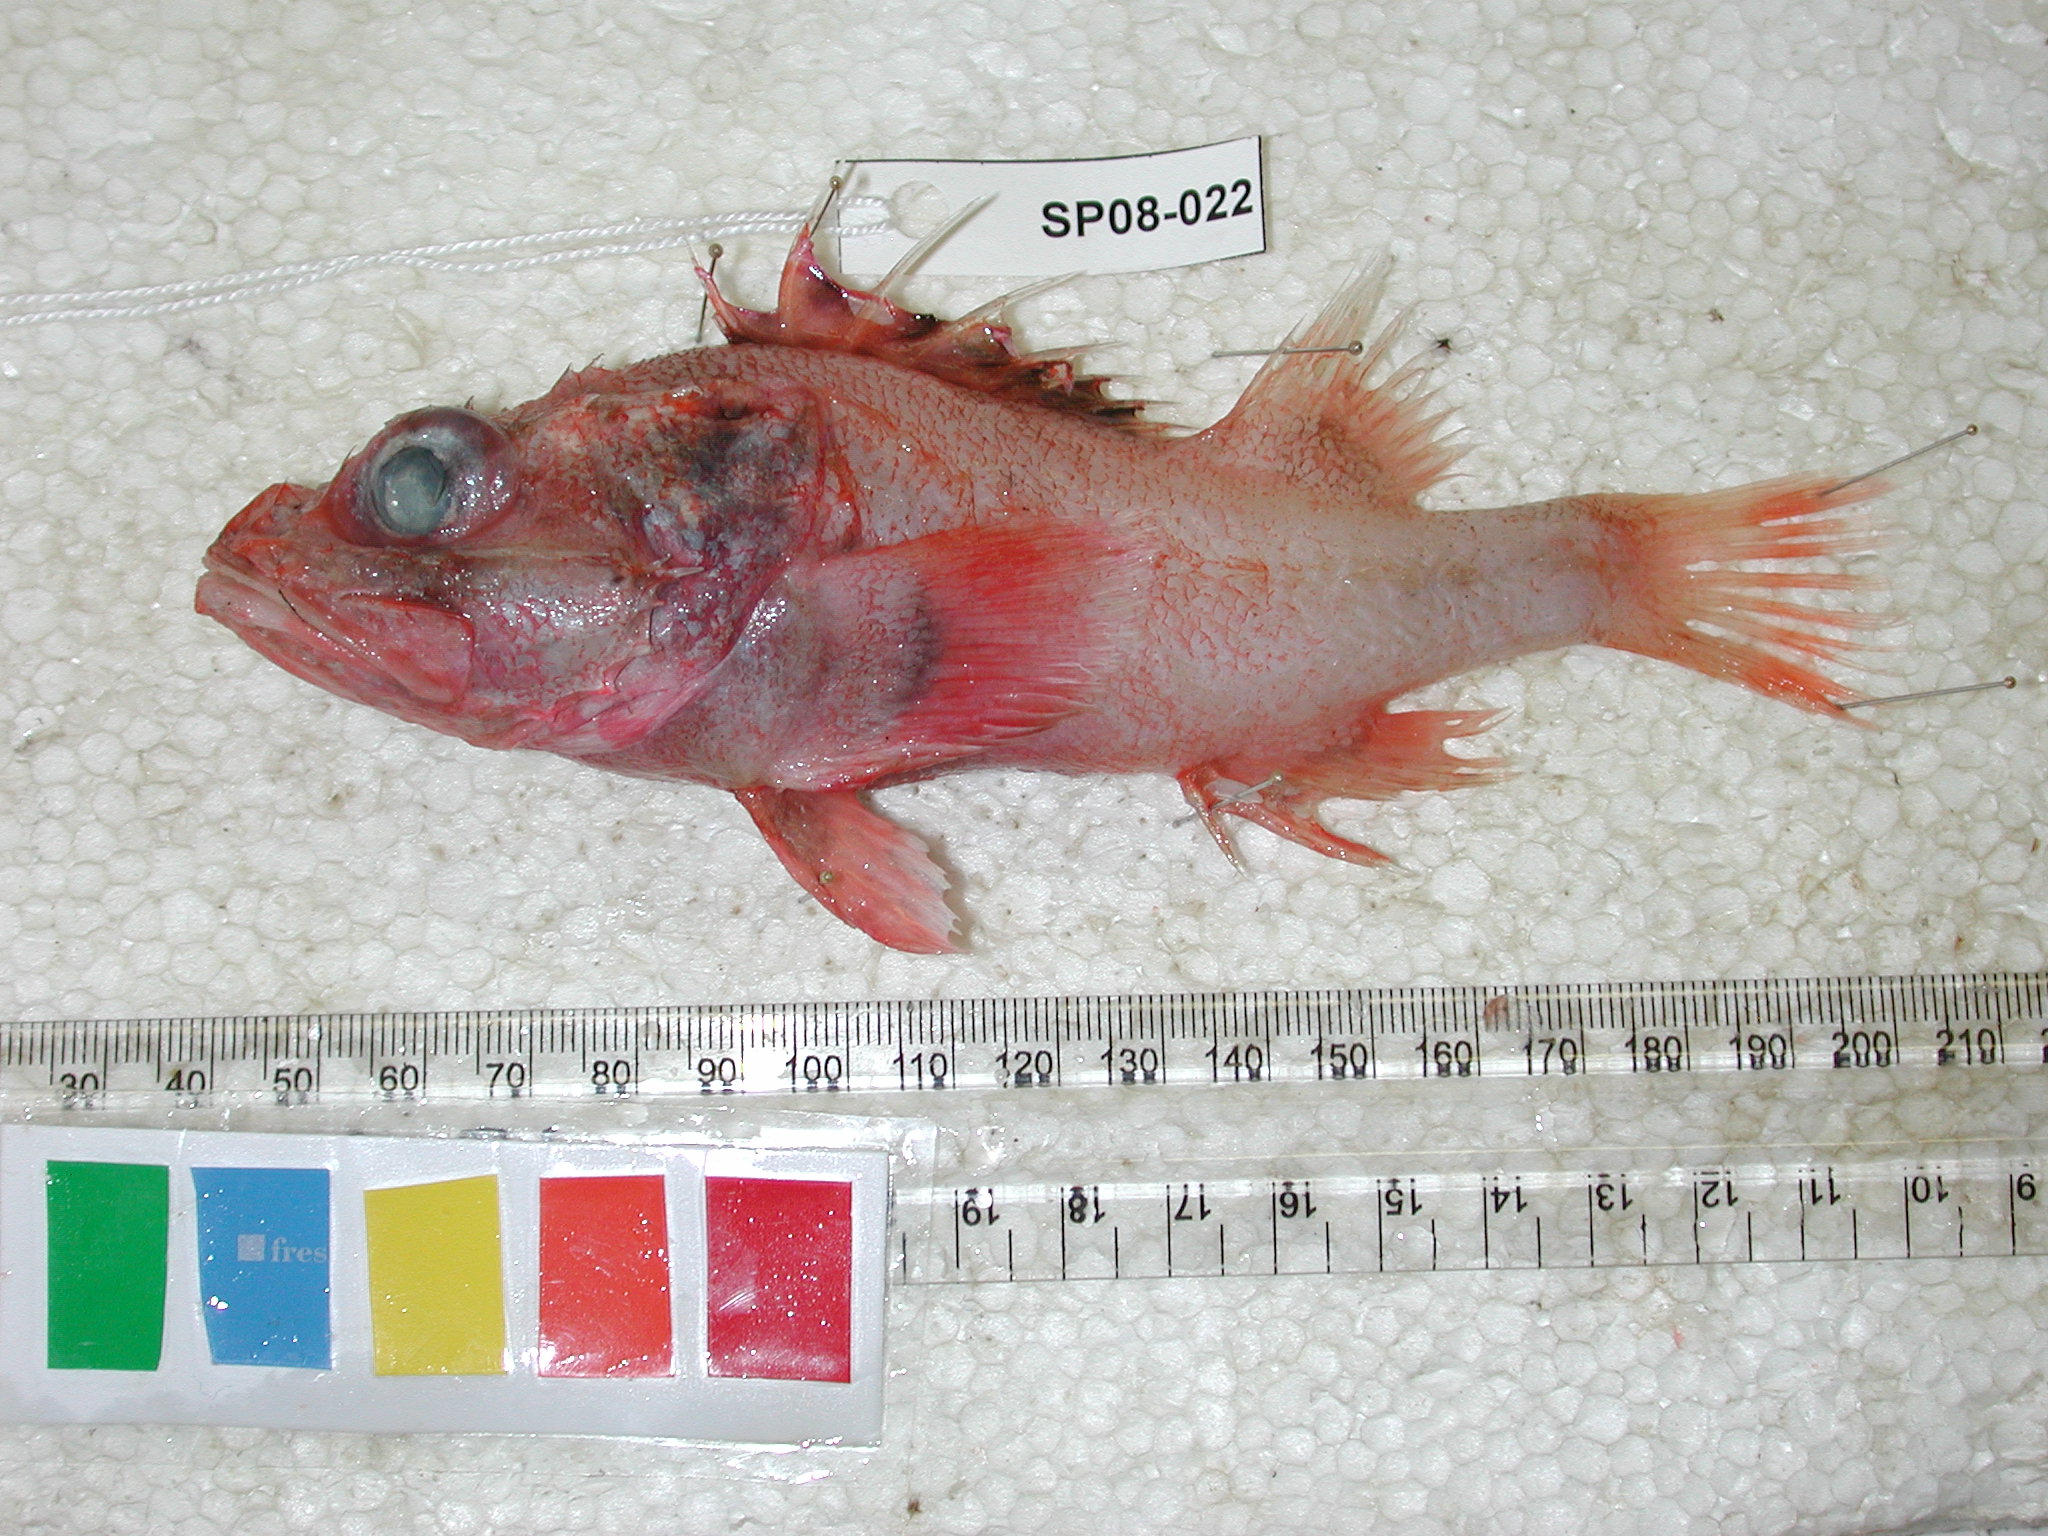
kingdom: Animalia
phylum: Chordata
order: Scorpaeniformes
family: Sebastidae
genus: Trachyscorpia
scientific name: Trachyscorpia eschmeyeri
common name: Cape scorpionfish
